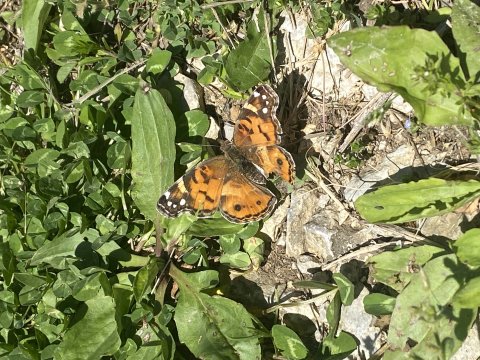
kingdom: Animalia
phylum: Arthropoda
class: Insecta
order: Lepidoptera
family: Nymphalidae
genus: Vanessa
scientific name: Vanessa virginiensis
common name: American Lady
